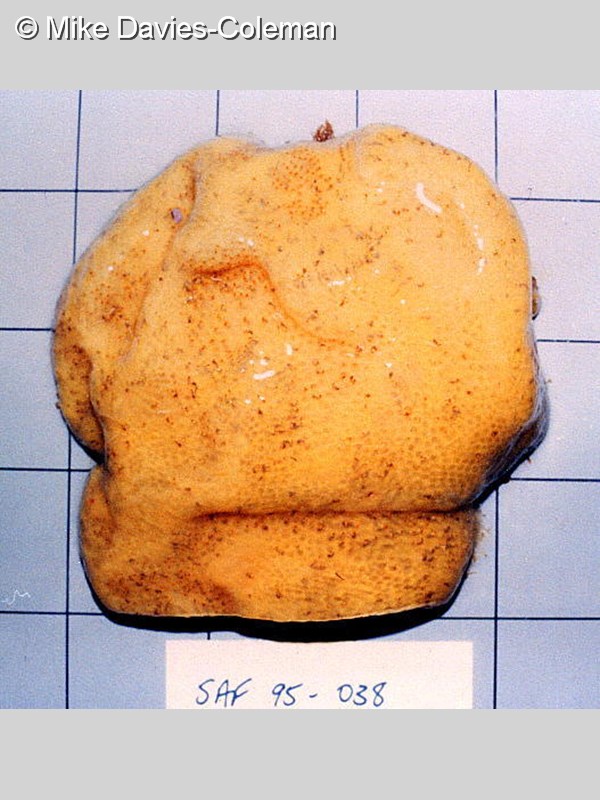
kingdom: Animalia
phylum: Chordata
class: Ascidiacea
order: Aplousobranchia
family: Pseudodistomidae
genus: Pseudodistoma
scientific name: Pseudodistoma
